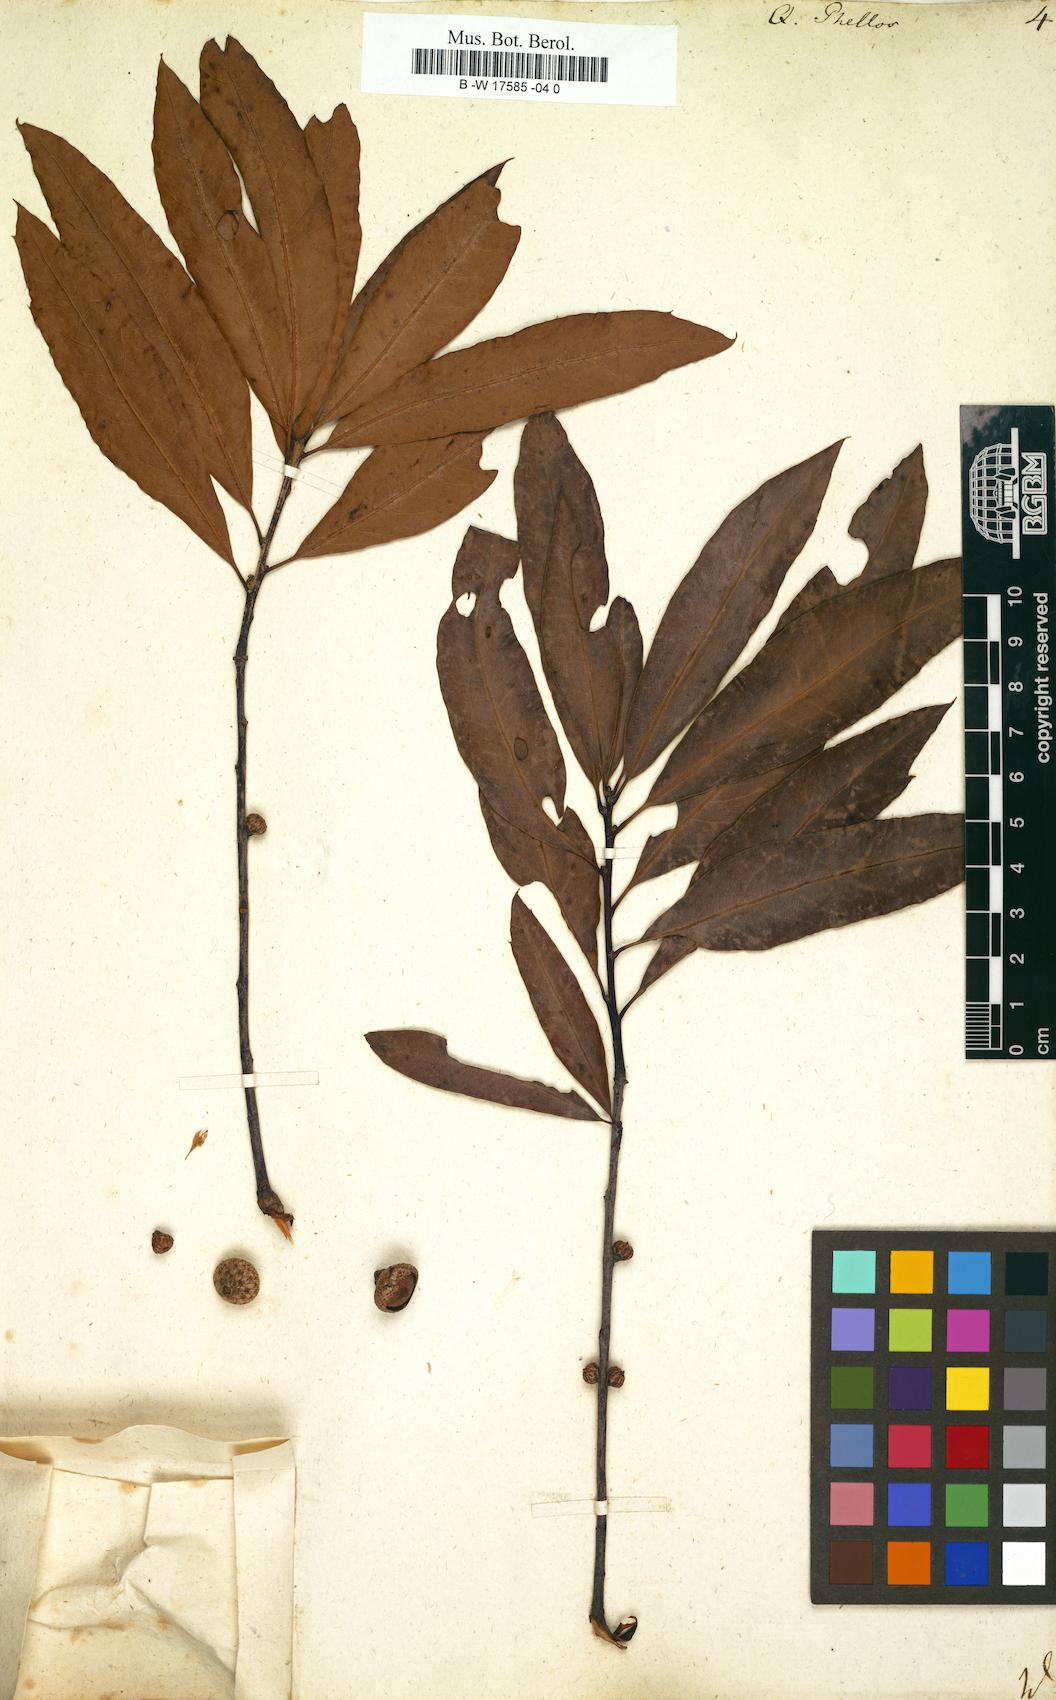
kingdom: Plantae
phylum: Tracheophyta
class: Magnoliopsida
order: Fagales
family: Fagaceae
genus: Quercus
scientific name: Quercus phellos
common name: Willow oak
